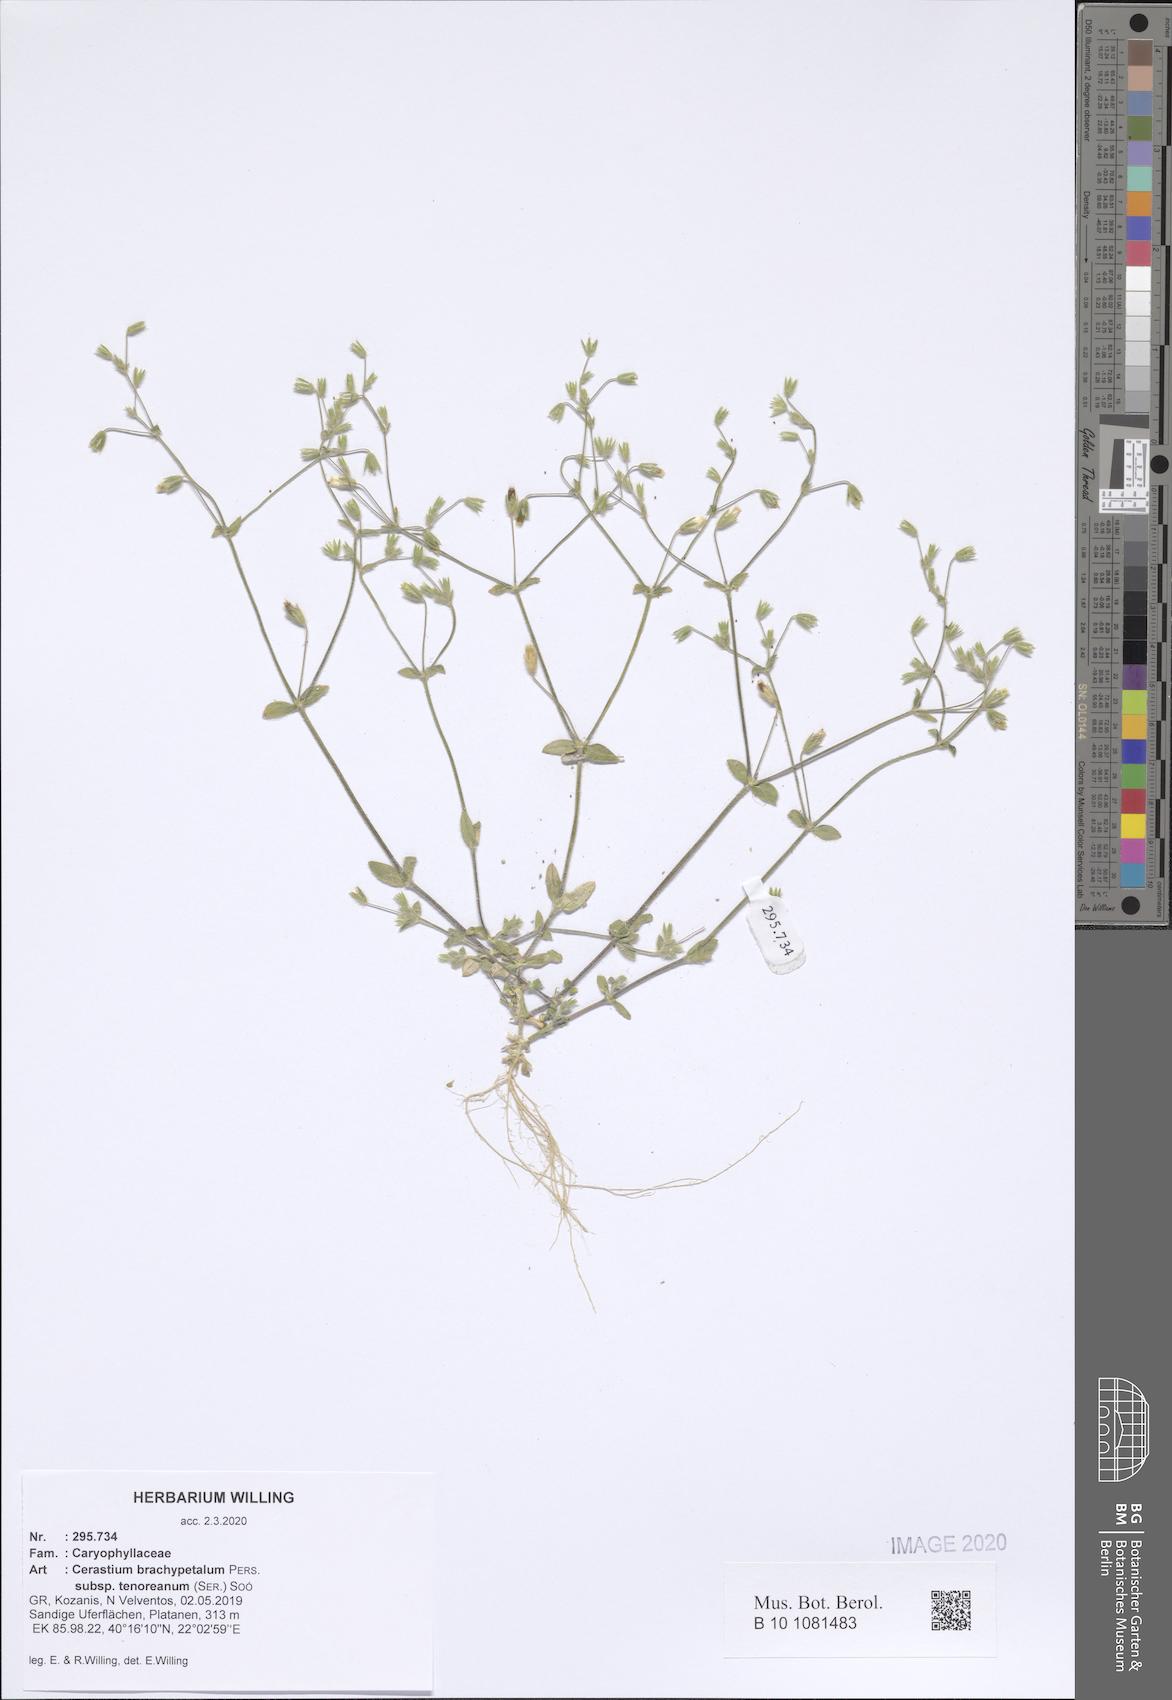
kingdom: Plantae
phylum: Tracheophyta
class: Magnoliopsida
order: Caryophyllales
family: Caryophyllaceae
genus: Cerastium
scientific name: Cerastium tenoreanum
